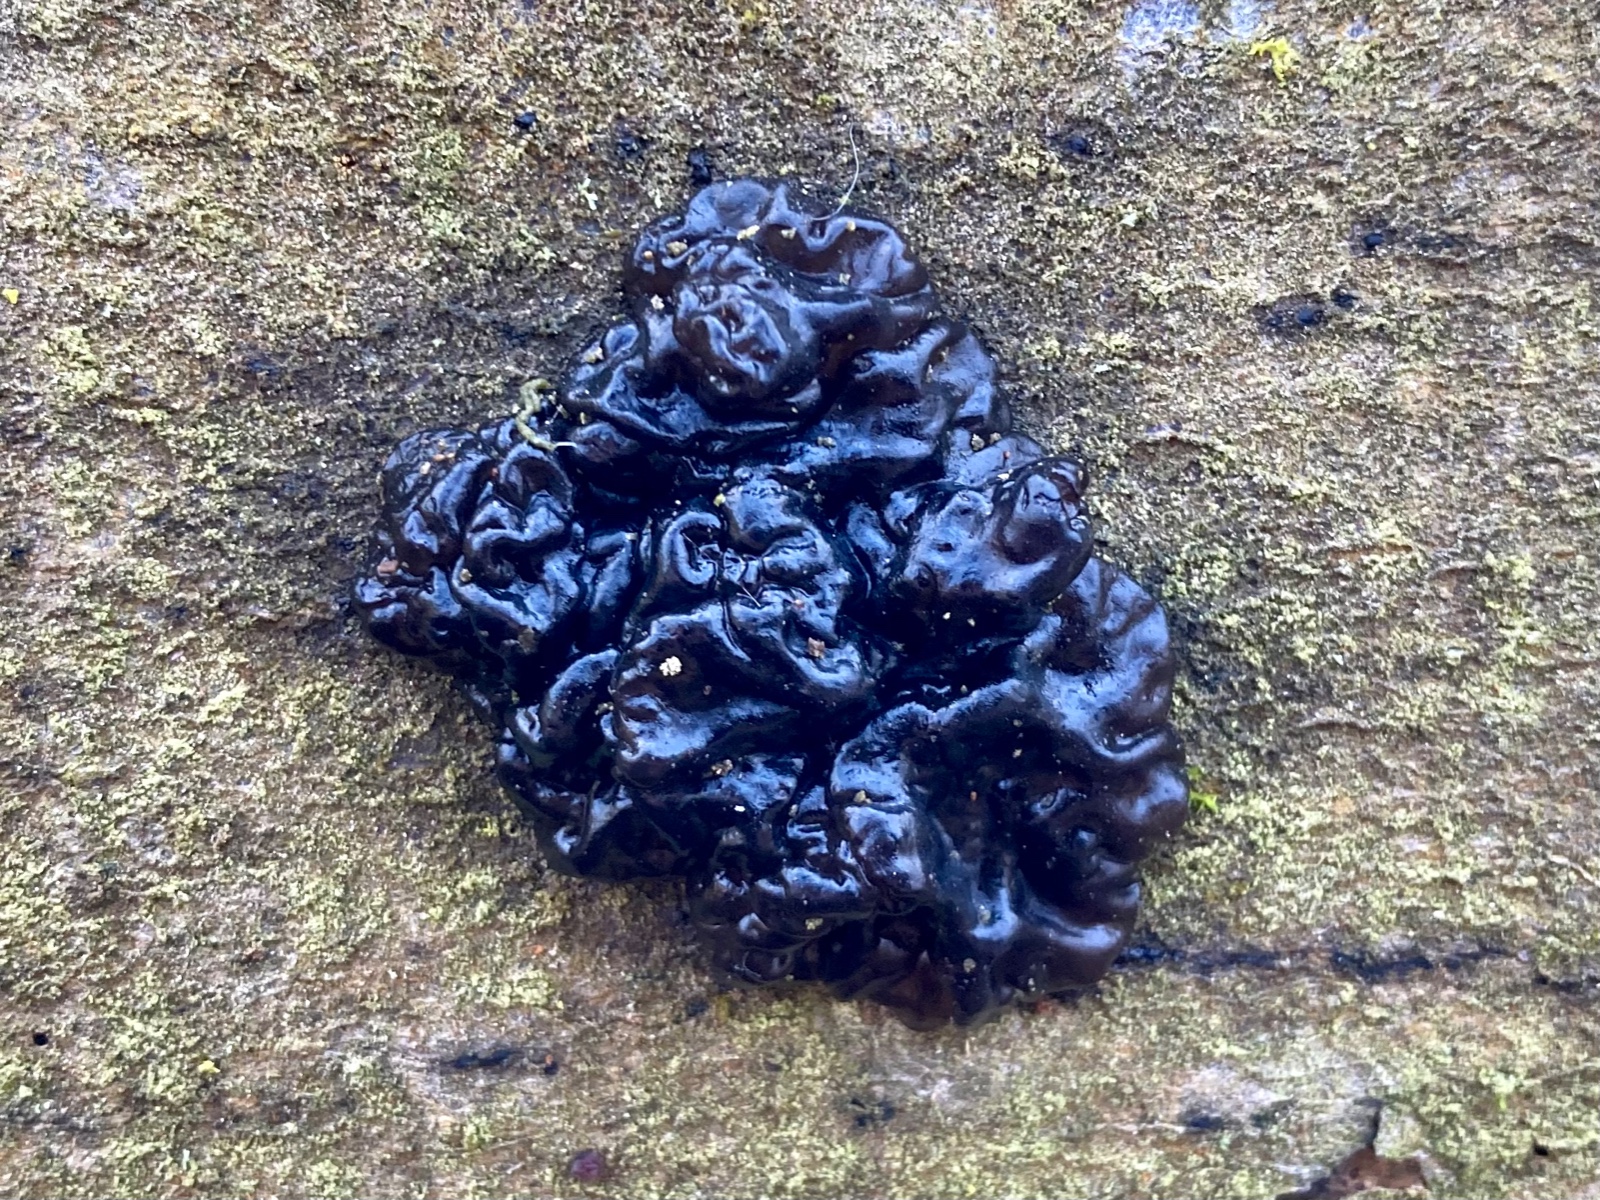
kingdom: Fungi
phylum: Basidiomycota
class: Agaricomycetes
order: Auriculariales
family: Auriculariaceae
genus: Exidia
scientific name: Exidia nigricans
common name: almindelig bævretop
